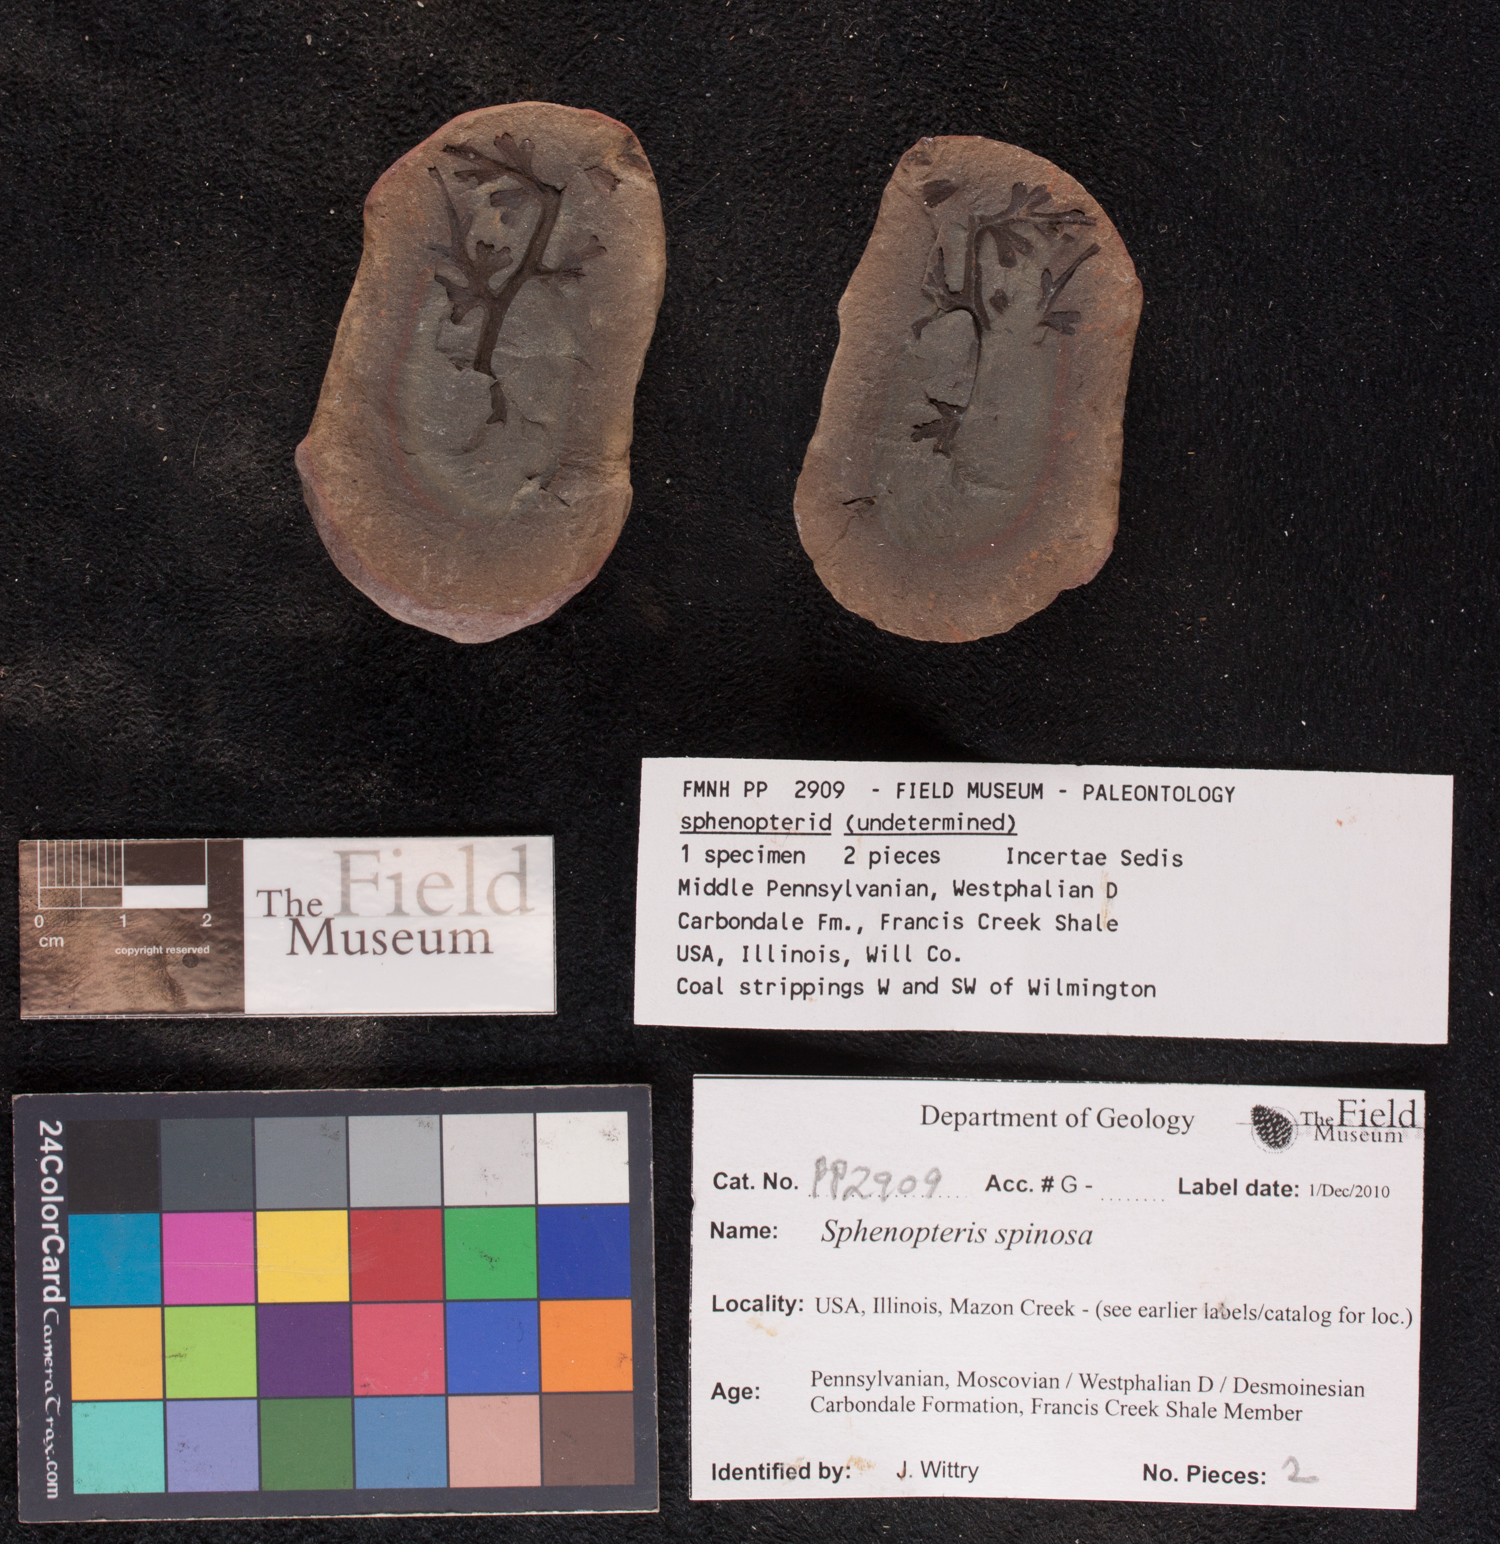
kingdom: Plantae
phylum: Tracheophyta
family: Lyginopteridaceae
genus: Sphenopteris
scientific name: Sphenopteris
